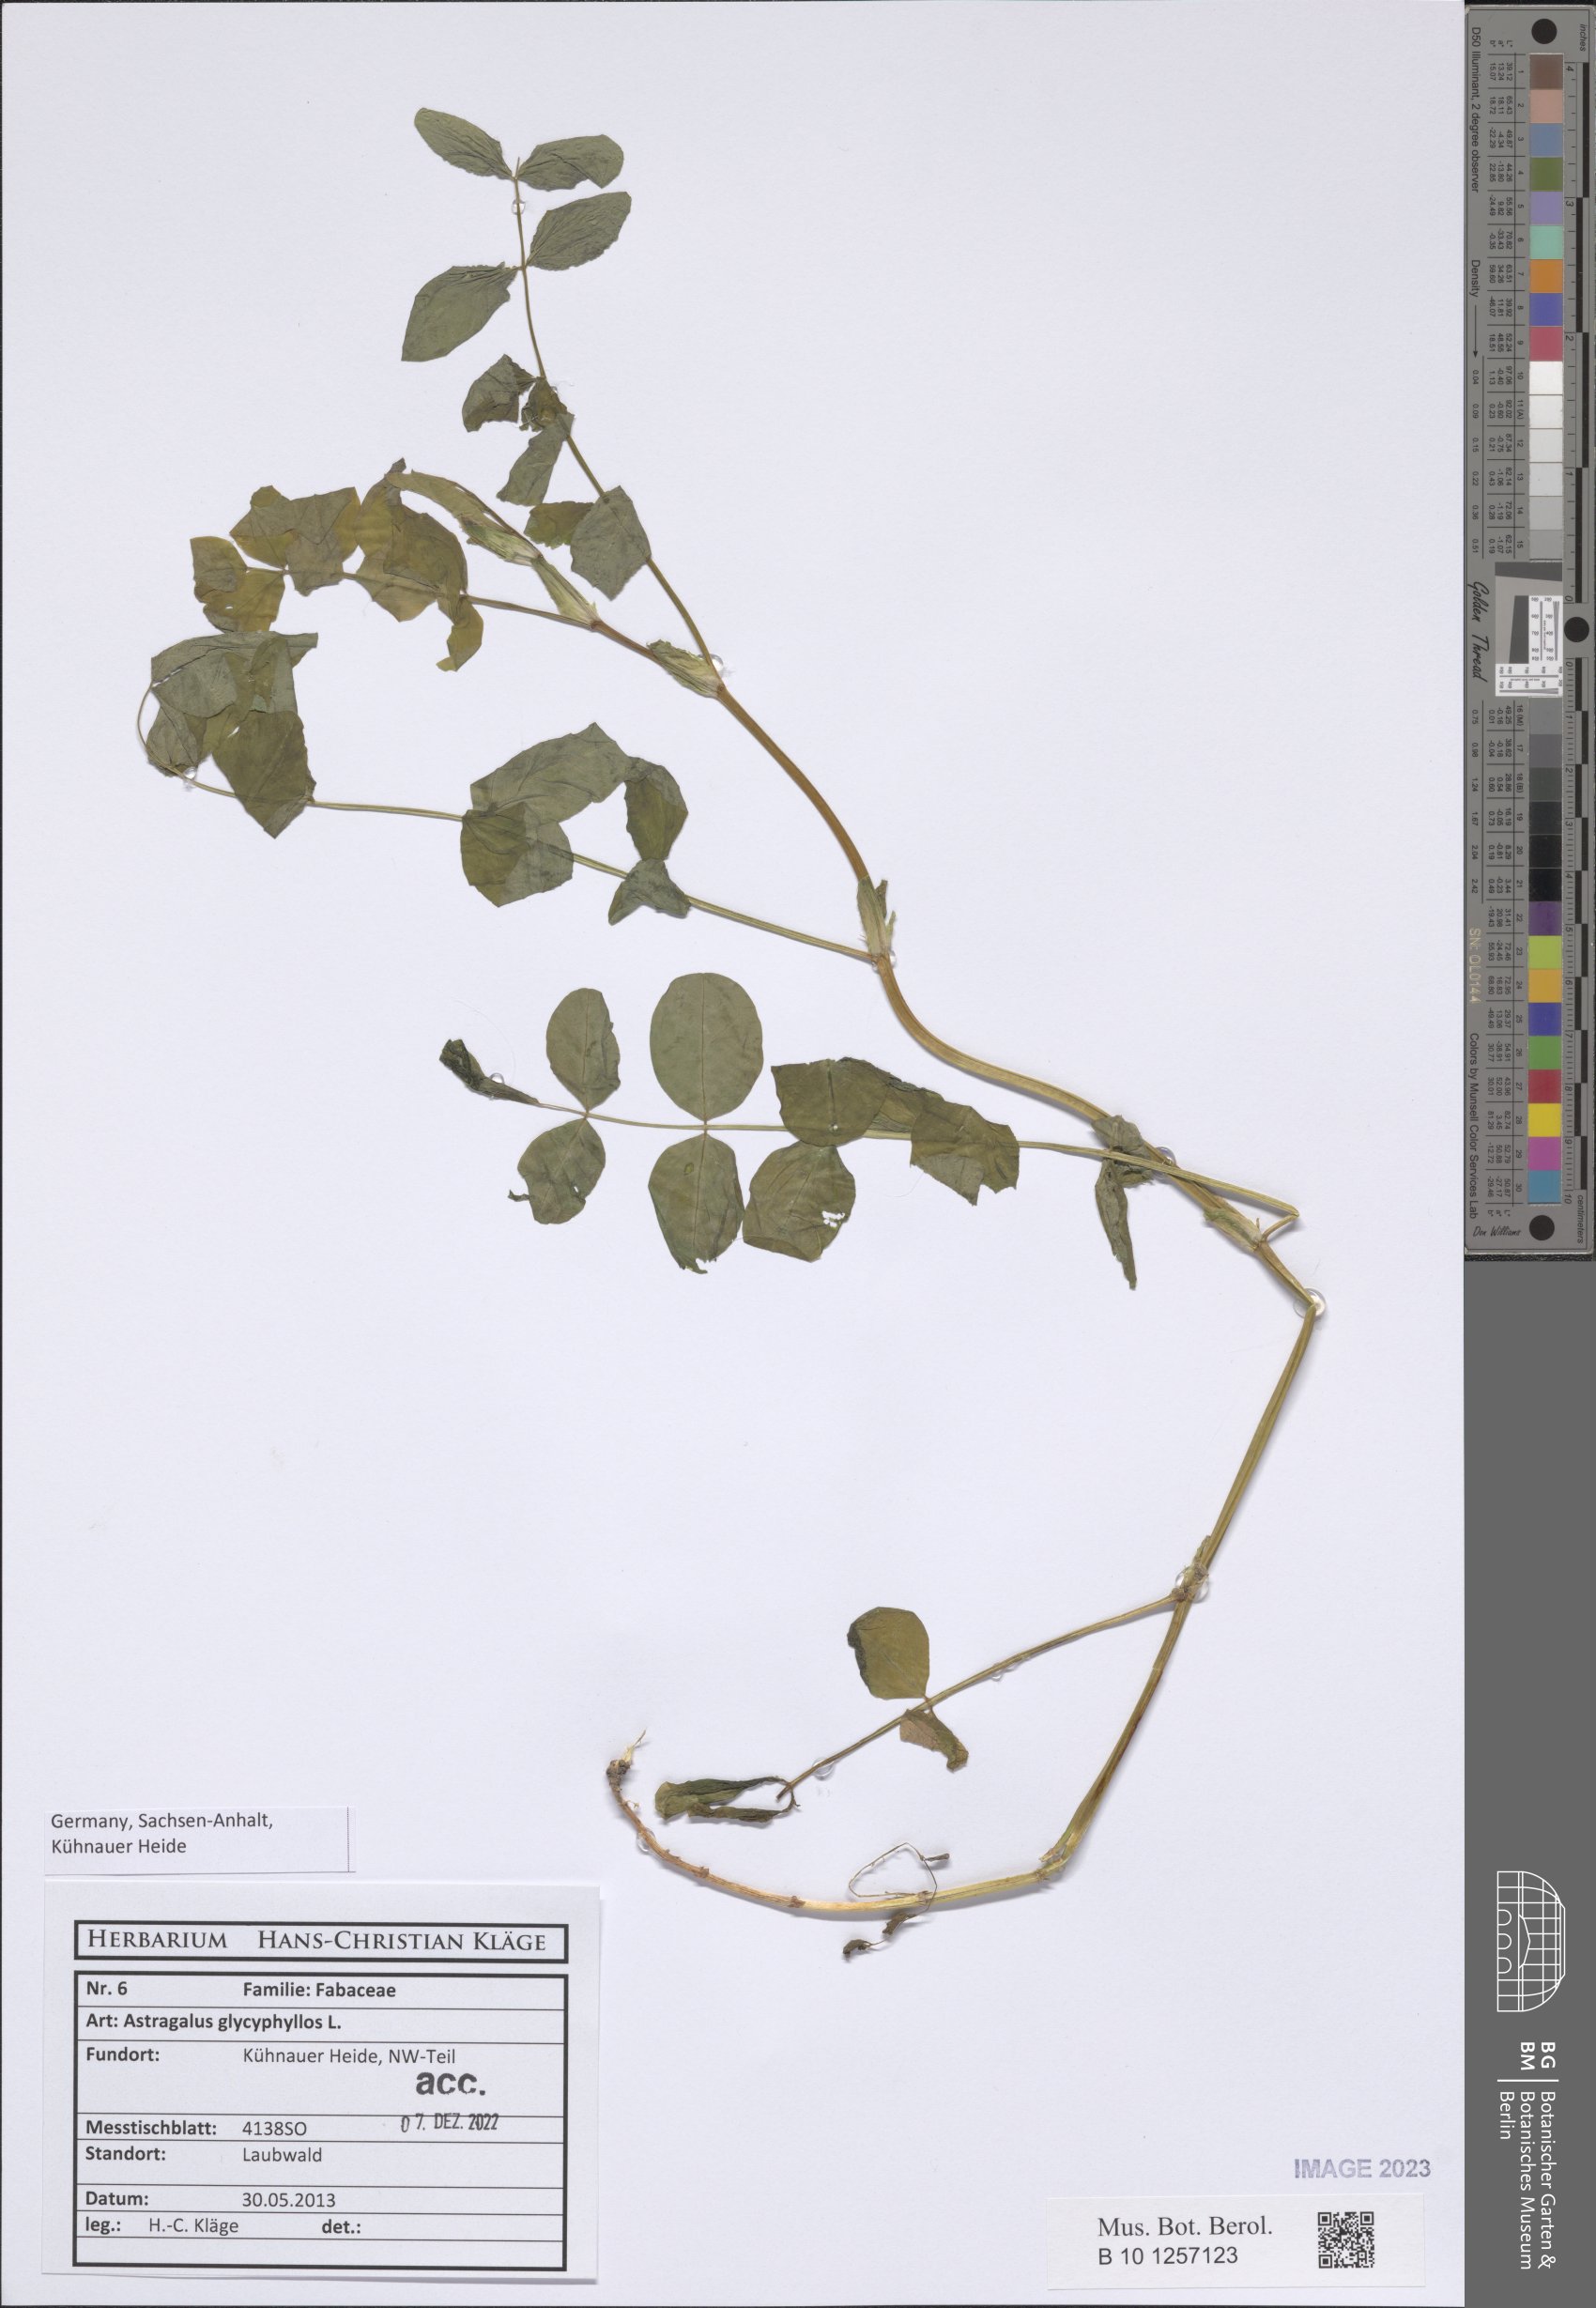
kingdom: Plantae
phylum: Tracheophyta
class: Magnoliopsida
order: Fabales
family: Fabaceae
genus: Astragalus
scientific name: Astragalus glycyphyllos
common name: Wild liquorice
